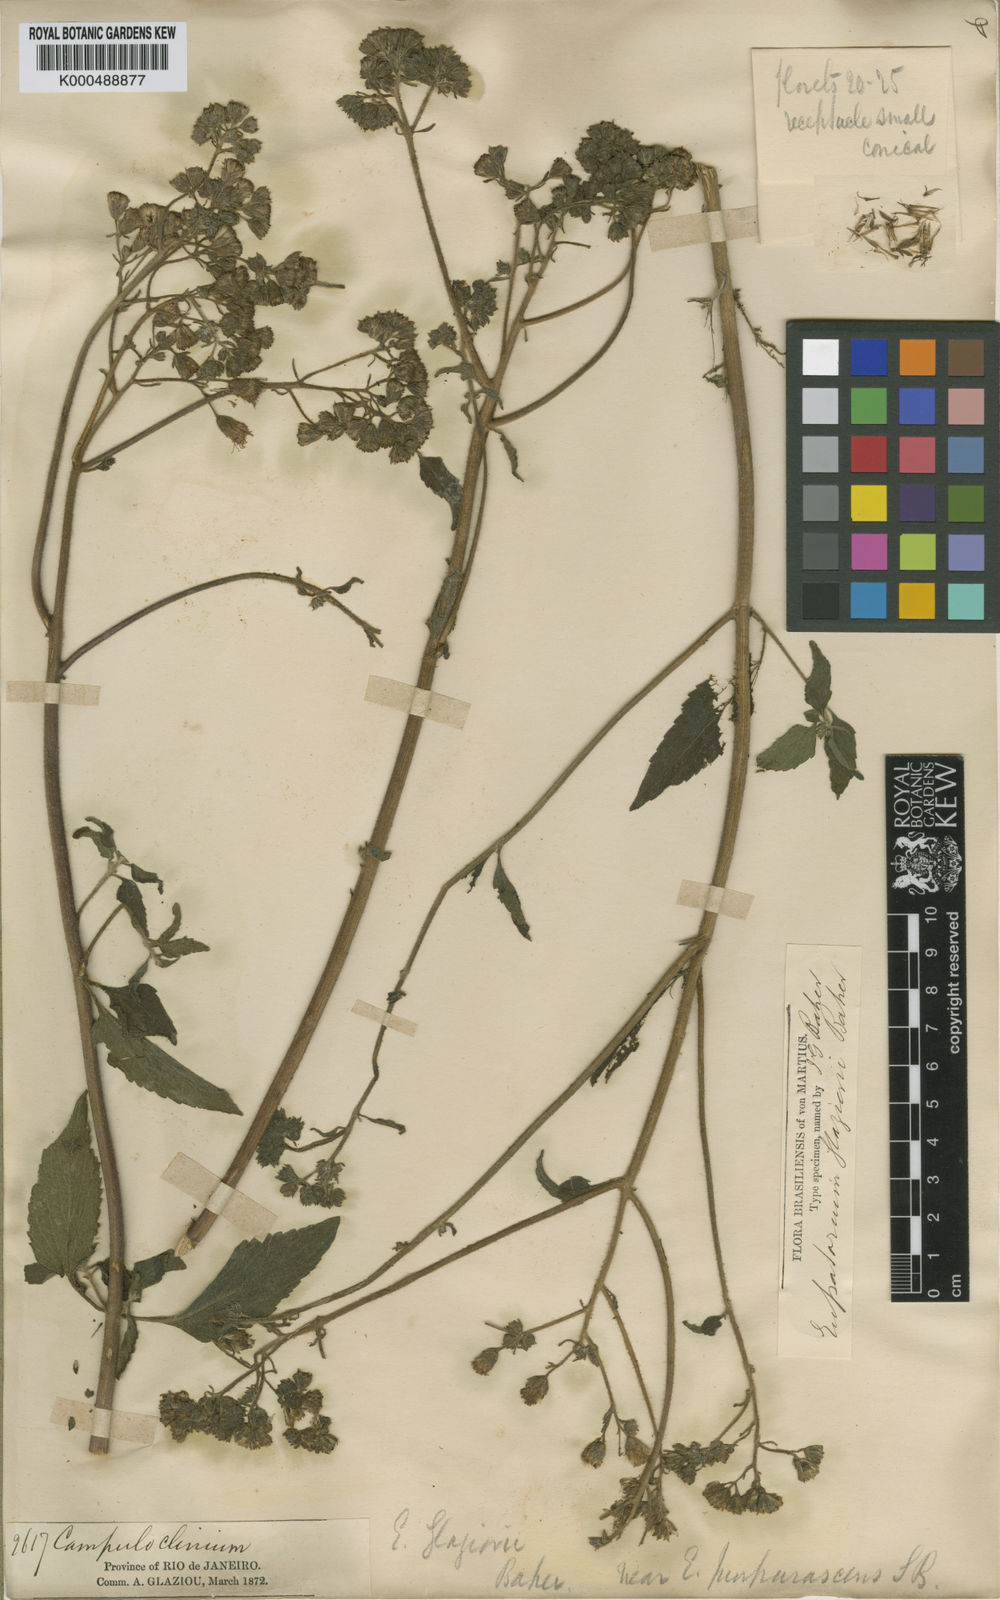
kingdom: Plantae
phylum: Tracheophyta
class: Magnoliopsida
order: Asterales
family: Asteraceae
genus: Campuloclinium
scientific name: Campuloclinium purpurascens
